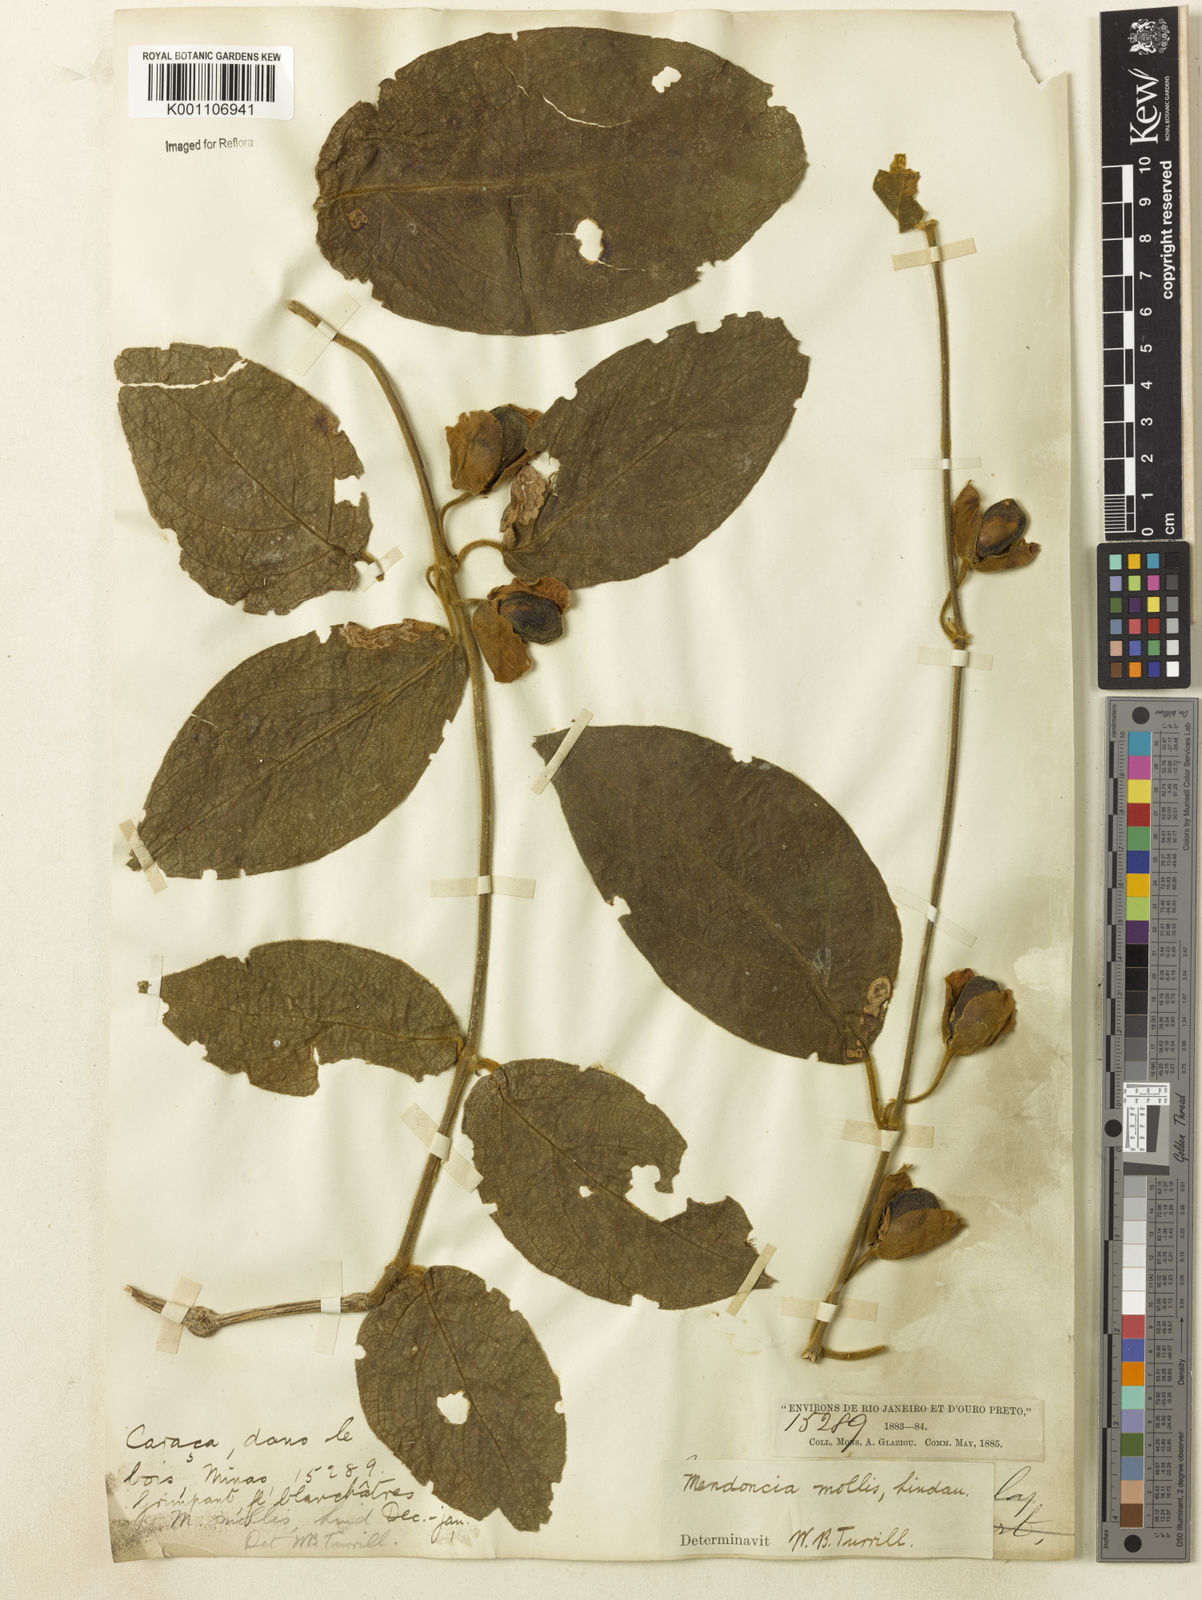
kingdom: Plantae
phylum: Tracheophyta
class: Magnoliopsida
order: Lamiales
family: Acanthaceae
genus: Mendoncia
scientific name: Mendoncia mollis
